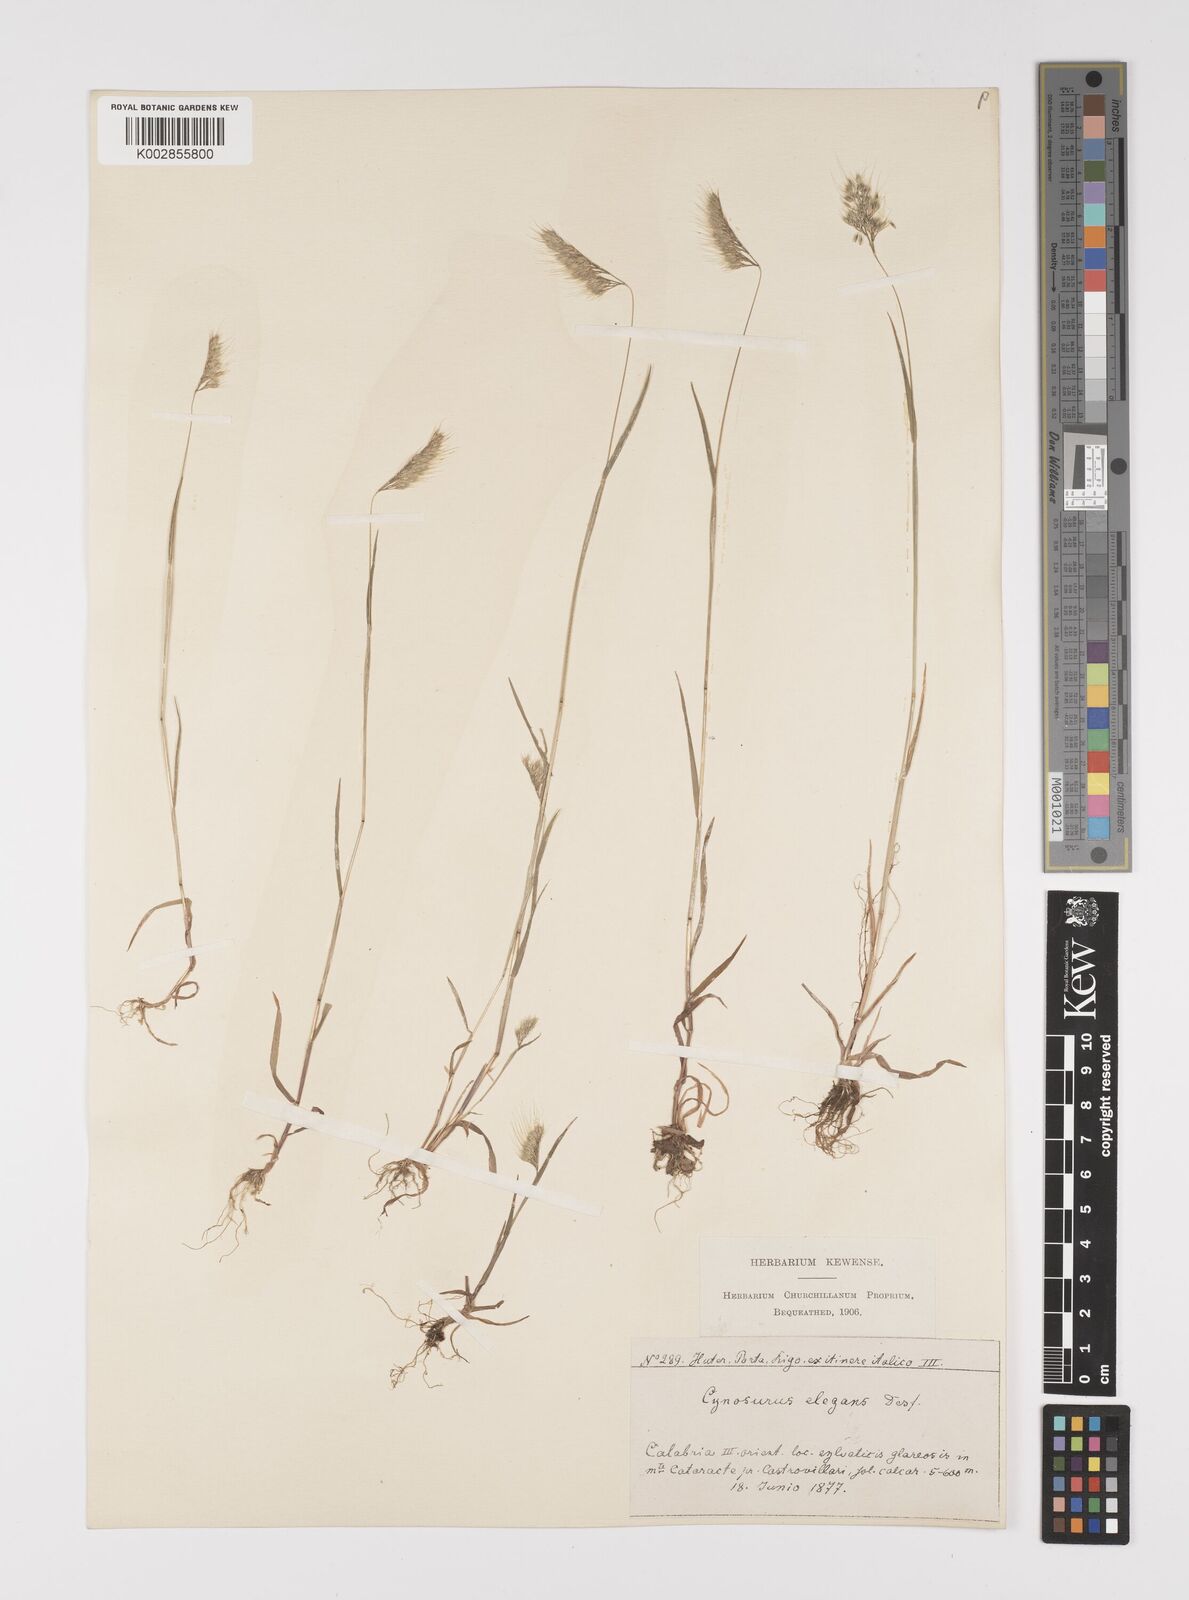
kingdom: Plantae
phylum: Tracheophyta
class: Liliopsida
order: Poales
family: Poaceae
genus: Cynosurus
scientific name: Cynosurus elegans
